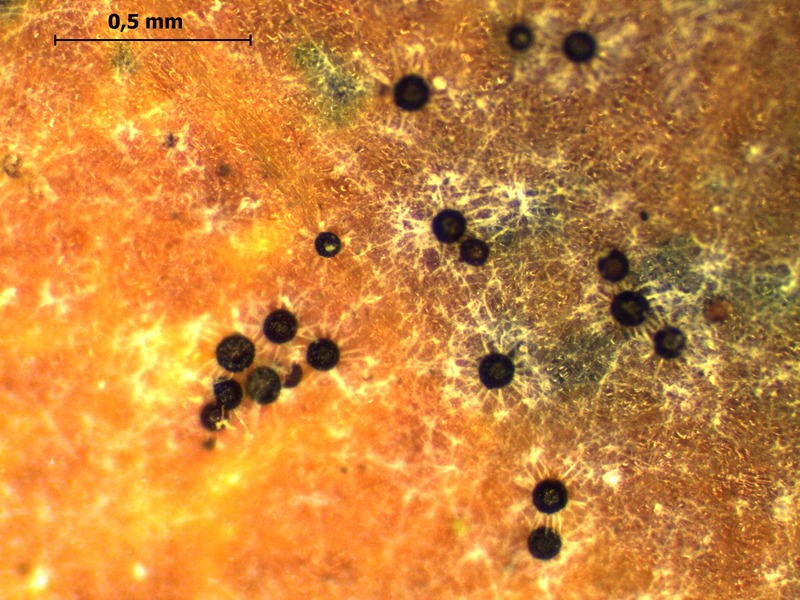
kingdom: Fungi
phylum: Ascomycota
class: Leotiomycetes
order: Helotiales
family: Erysiphaceae
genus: Erysiphe
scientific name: Erysiphe alphitoides
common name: Oak mildew
